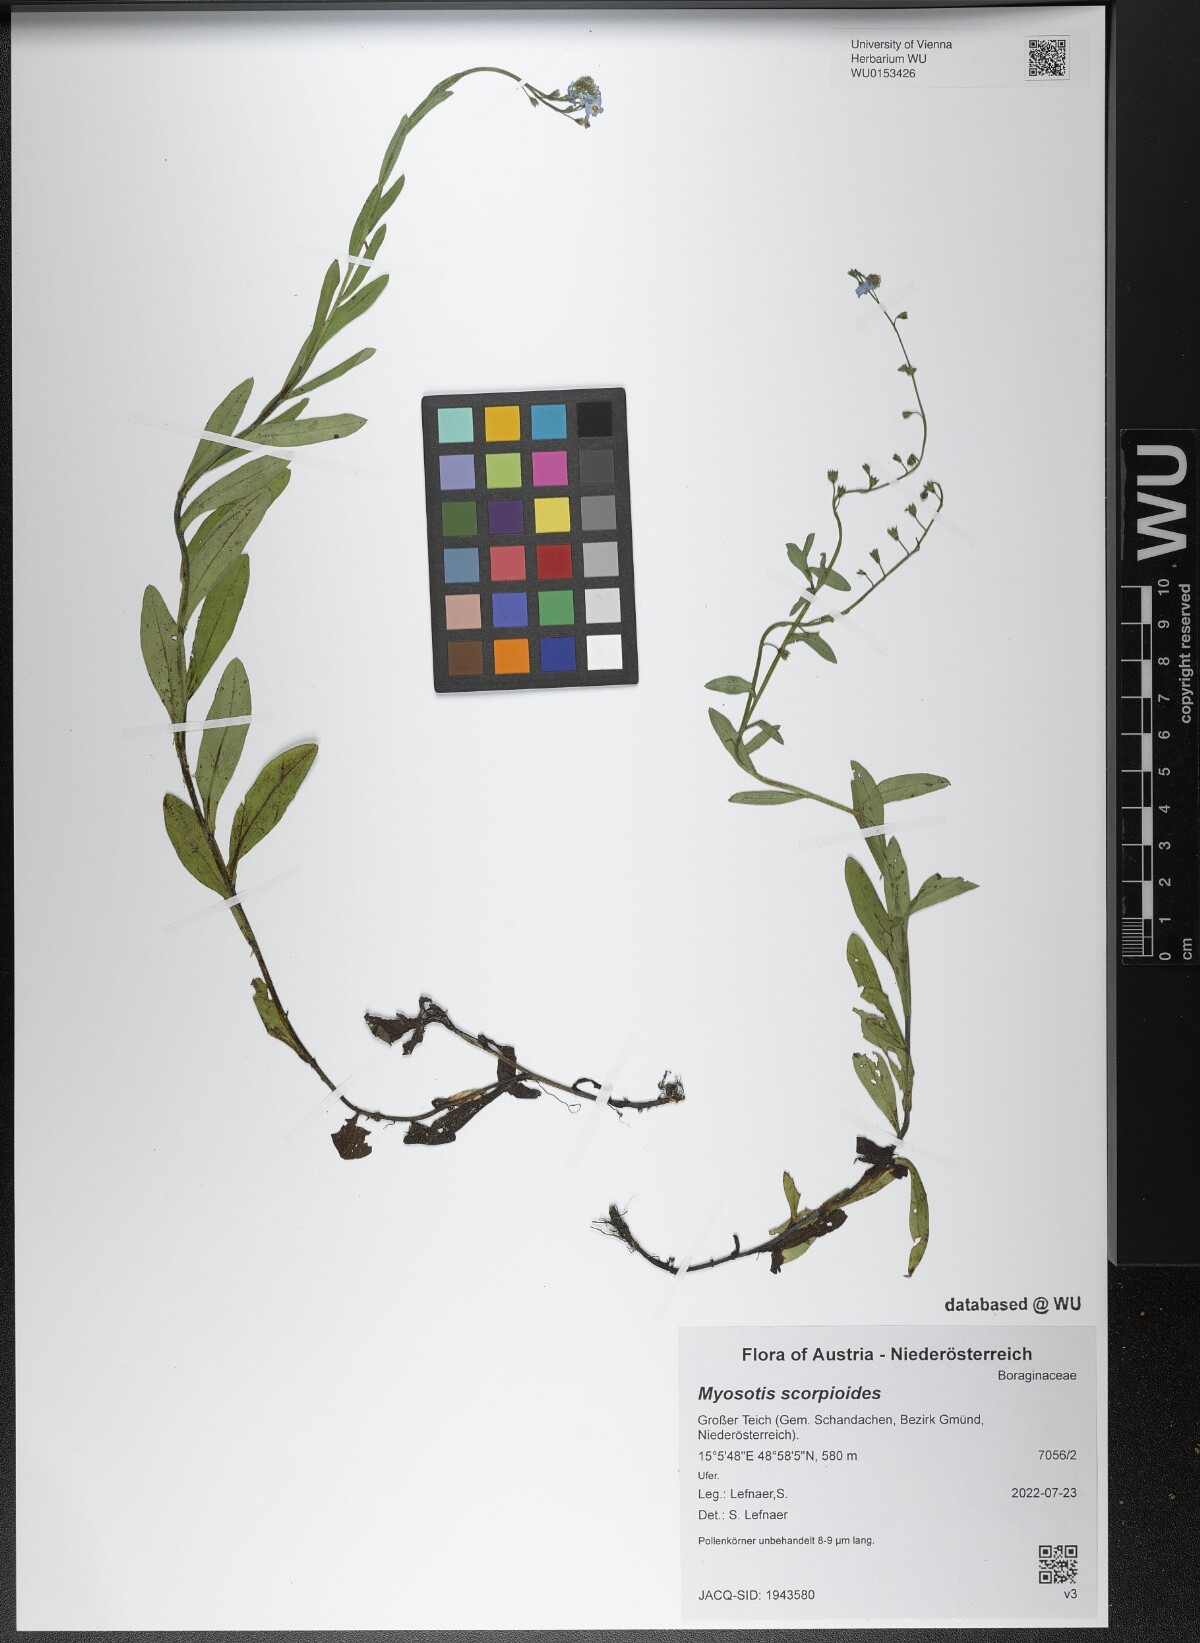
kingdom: Plantae
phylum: Tracheophyta
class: Magnoliopsida
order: Boraginales
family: Boraginaceae
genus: Myosotis
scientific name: Myosotis scorpioides
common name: Water forget-me-not
